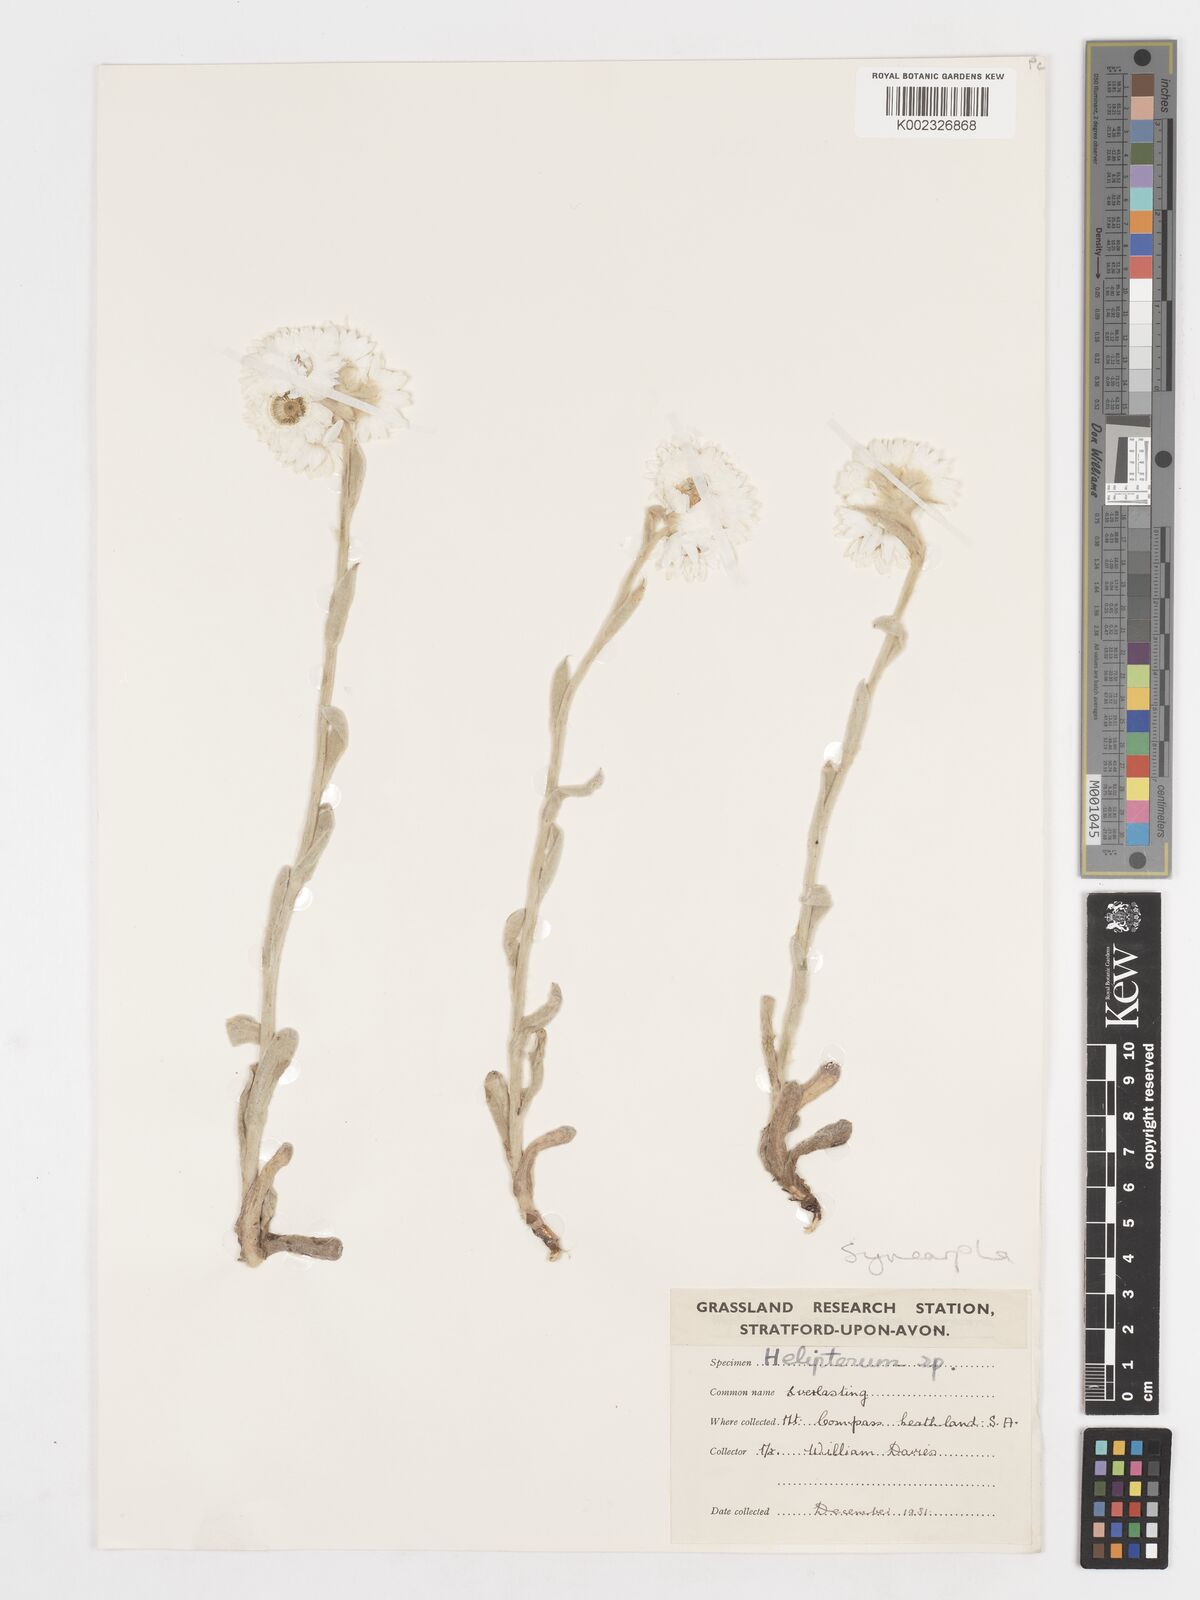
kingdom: Plantae
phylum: Tracheophyta
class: Magnoliopsida
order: Asterales
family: Asteraceae
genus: Syncarpha
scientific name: Syncarpha
